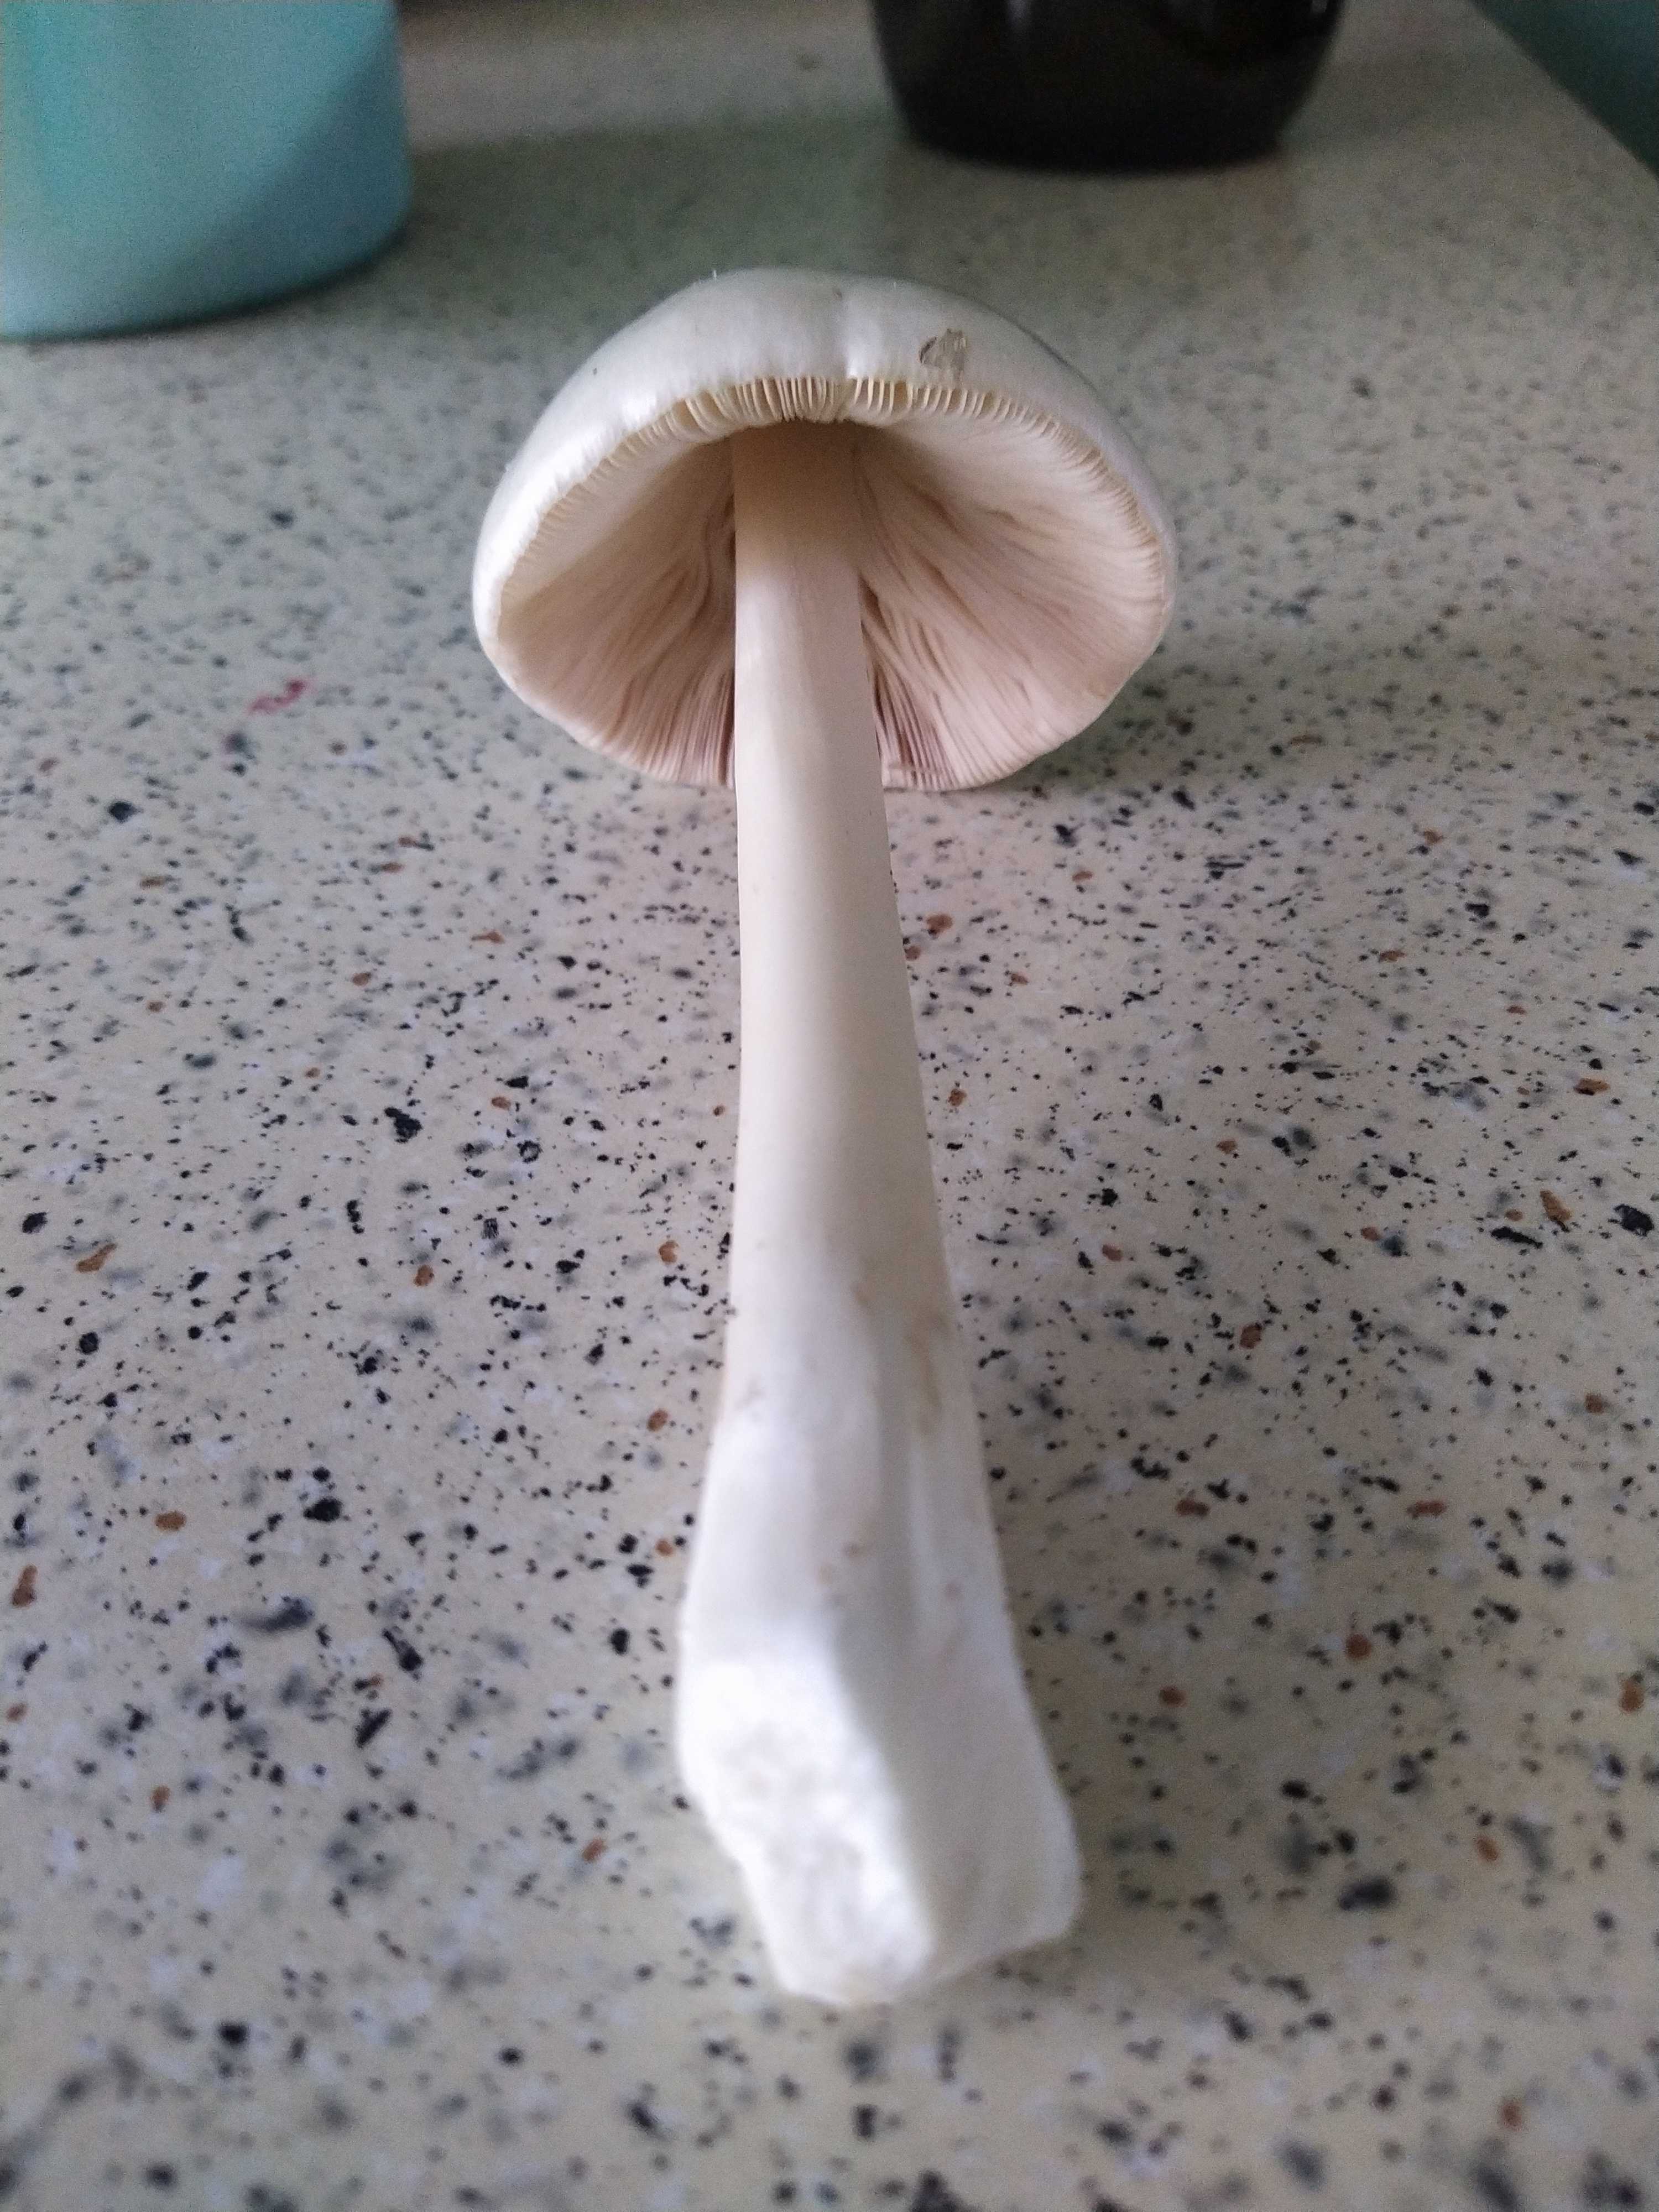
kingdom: Fungi
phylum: Basidiomycota
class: Agaricomycetes
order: Agaricales
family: Pluteaceae
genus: Volvopluteus
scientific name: Volvopluteus gloiocephalus
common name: høj posesvamp
